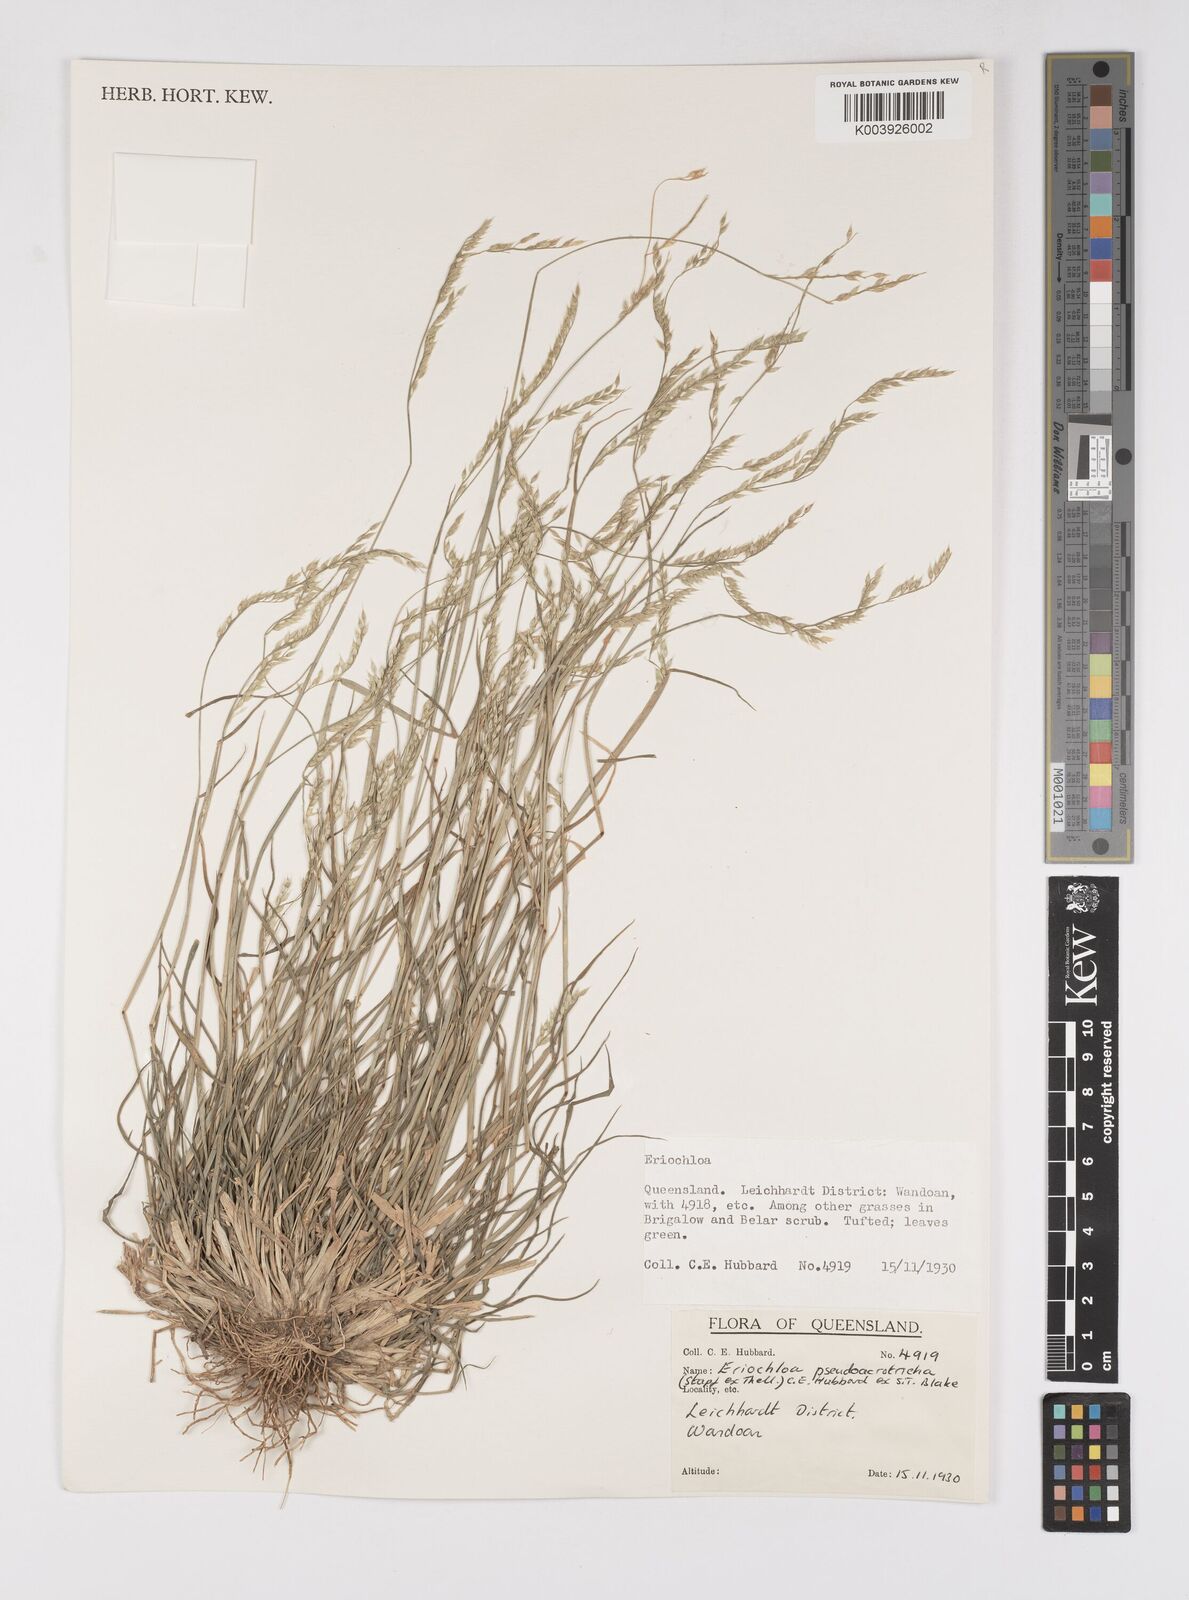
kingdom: Plantae
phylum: Tracheophyta
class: Liliopsida
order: Poales
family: Poaceae
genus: Eriochloa
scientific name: Eriochloa pseudoacrotricha
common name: Perennial cup-grass
